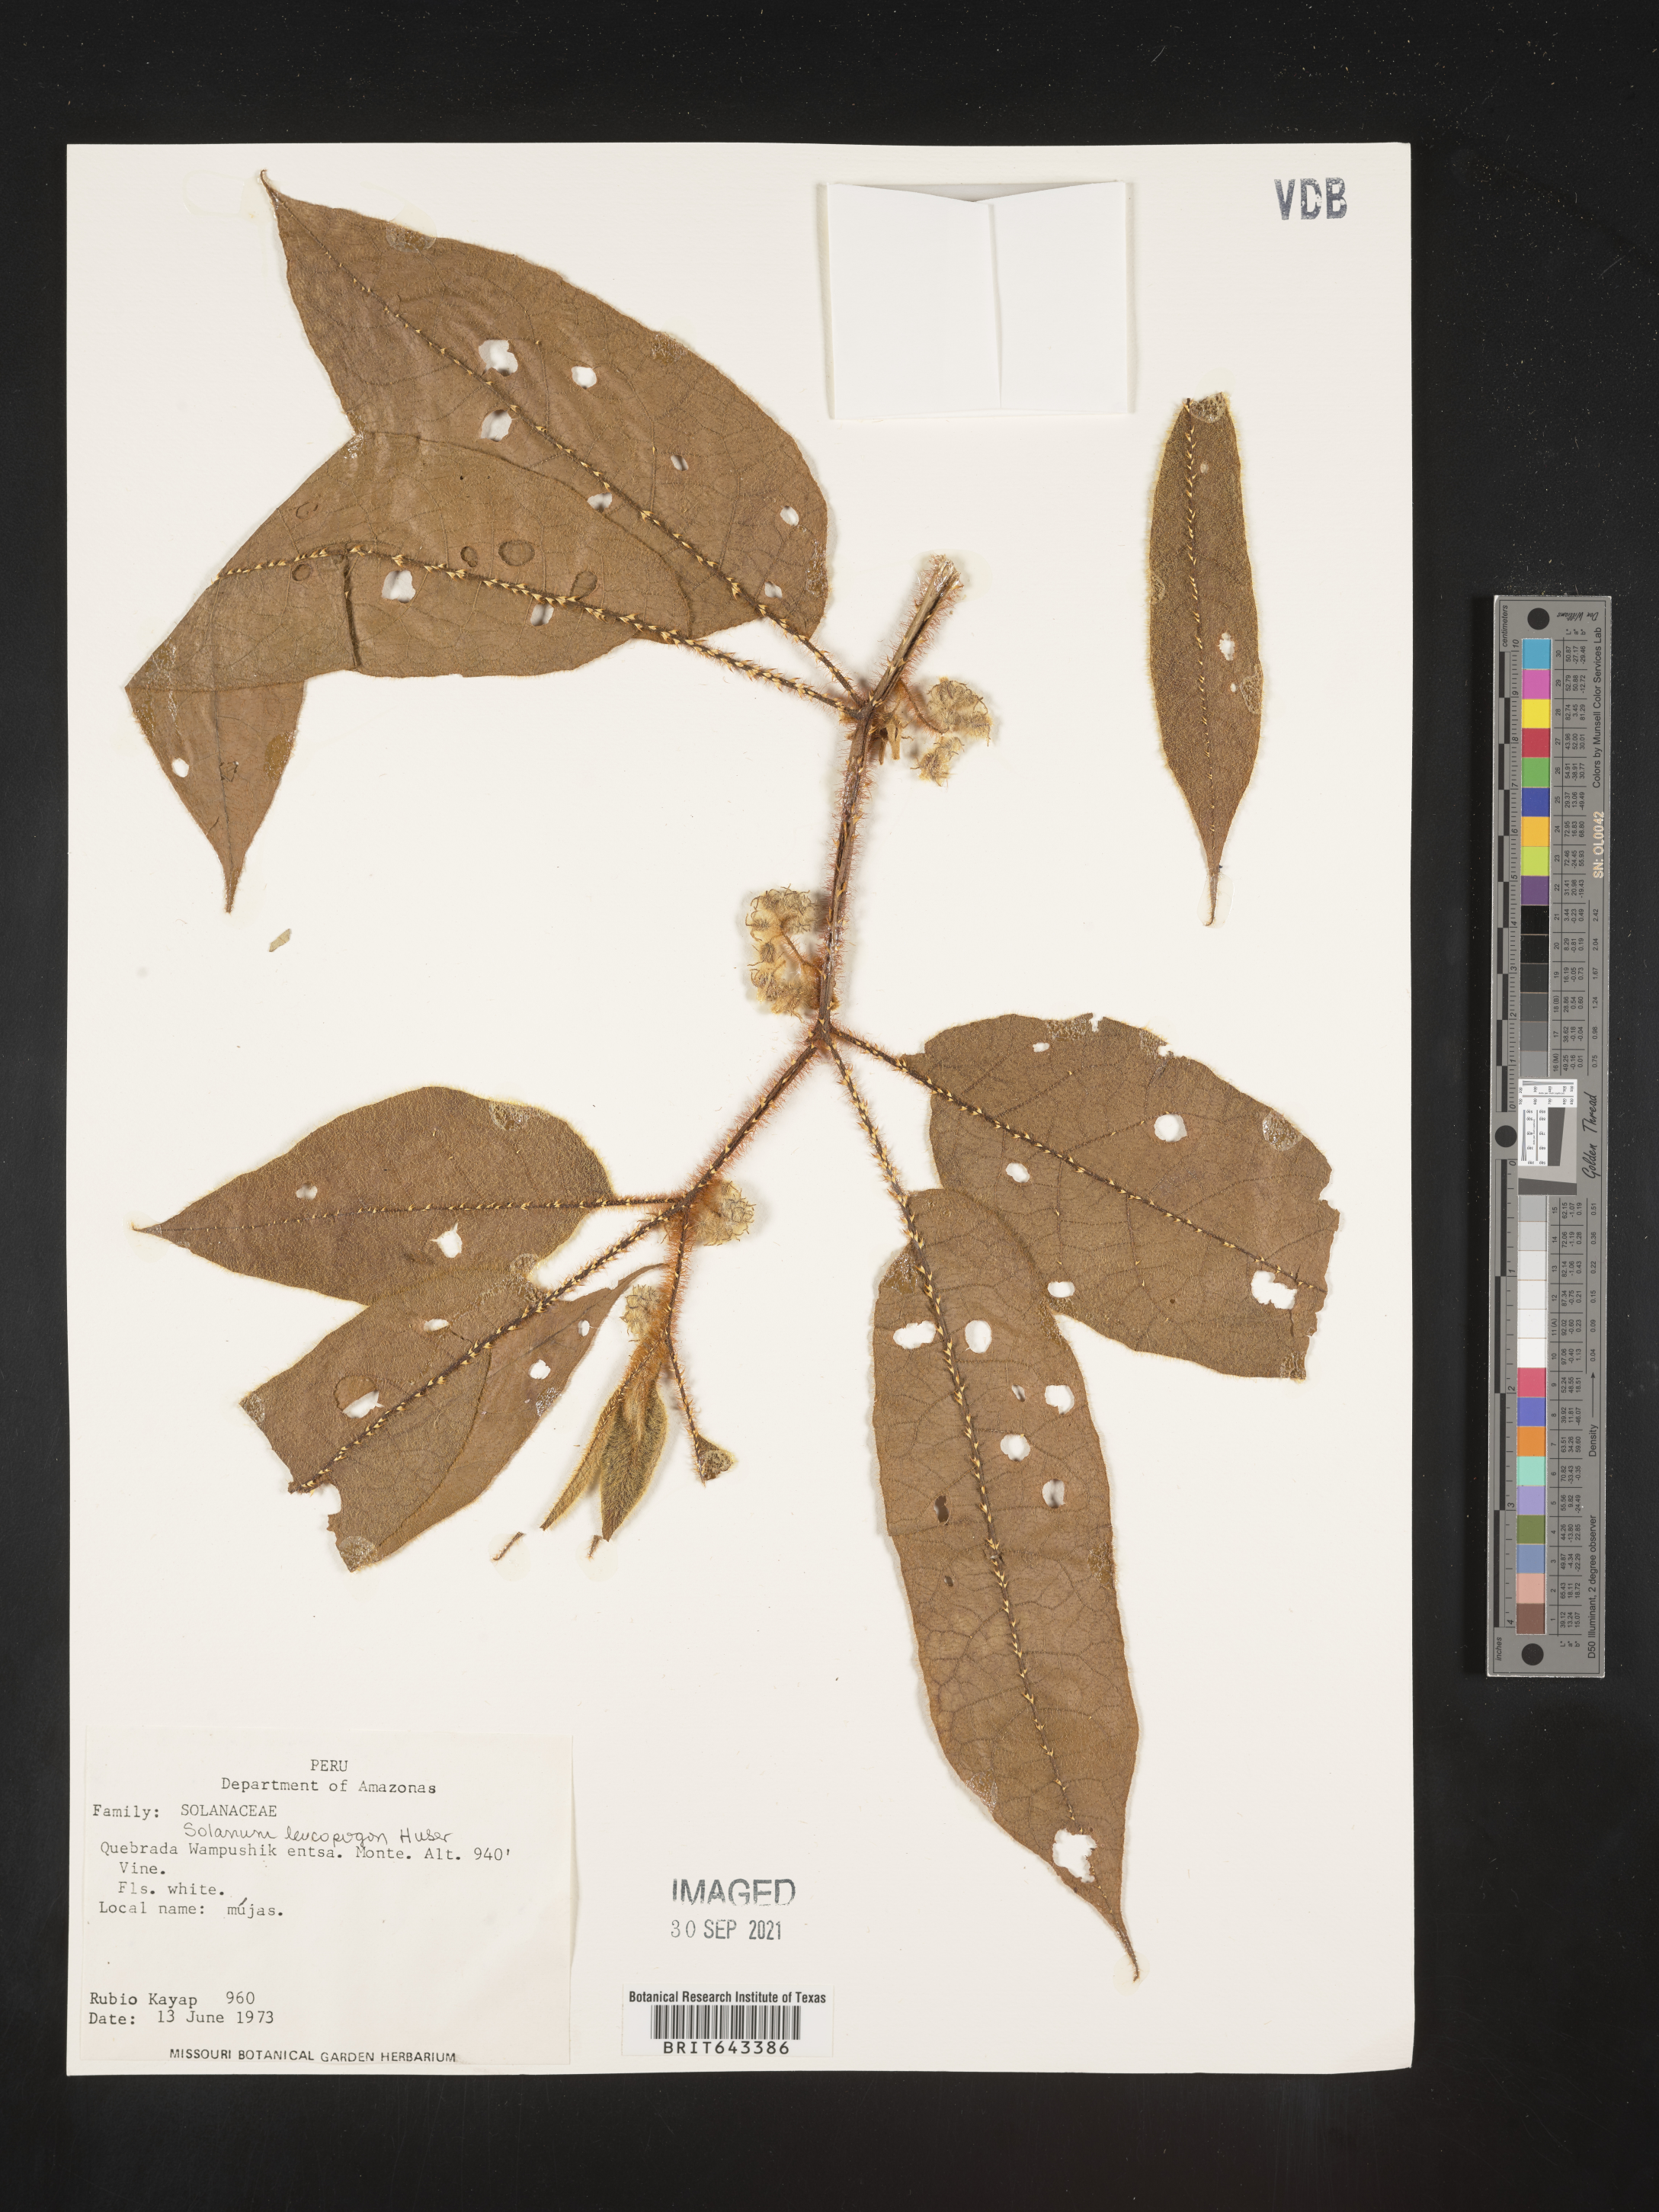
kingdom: Plantae
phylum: Tracheophyta
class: Magnoliopsida
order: Solanales
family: Solanaceae
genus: Solanum
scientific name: Solanum
